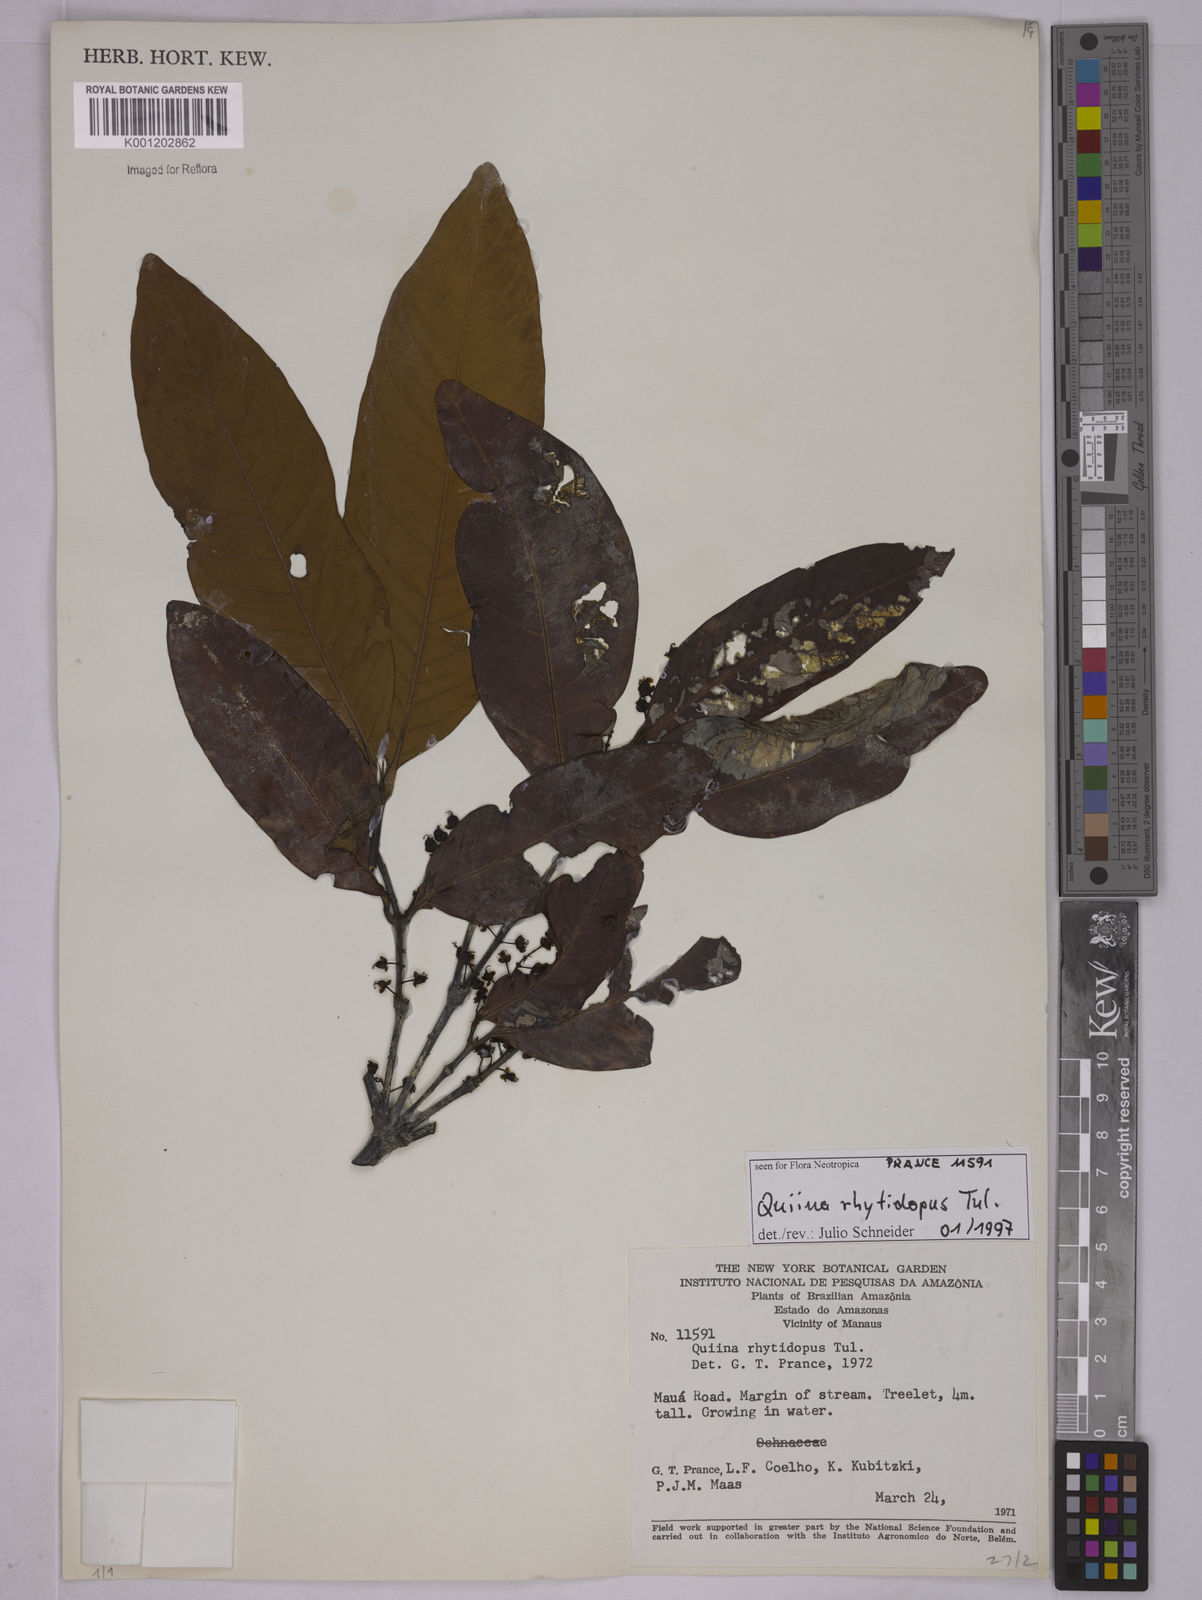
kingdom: Plantae
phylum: Tracheophyta
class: Magnoliopsida
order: Malpighiales
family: Quiinaceae
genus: Quiina
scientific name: Quiina rhytidopus
